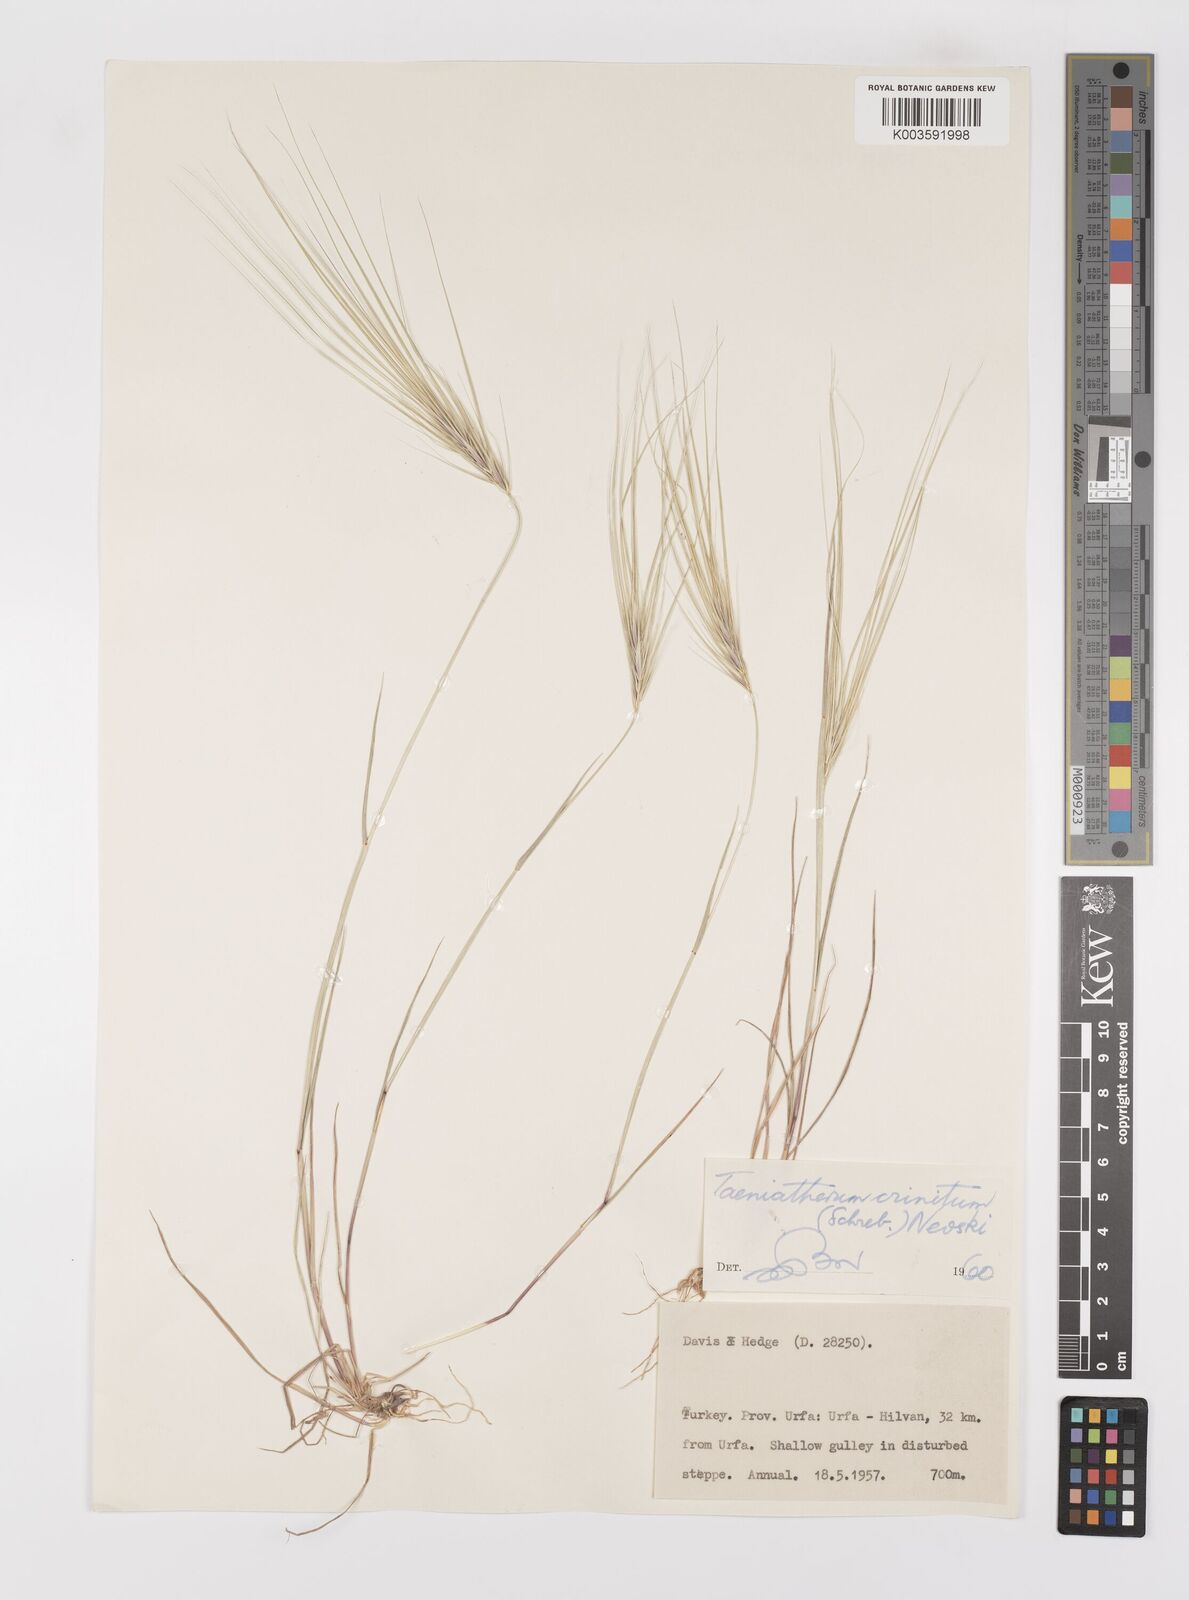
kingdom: Plantae
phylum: Tracheophyta
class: Liliopsida
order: Poales
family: Poaceae
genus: Taeniatherum
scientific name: Taeniatherum caput-medusae
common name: Medusahead
